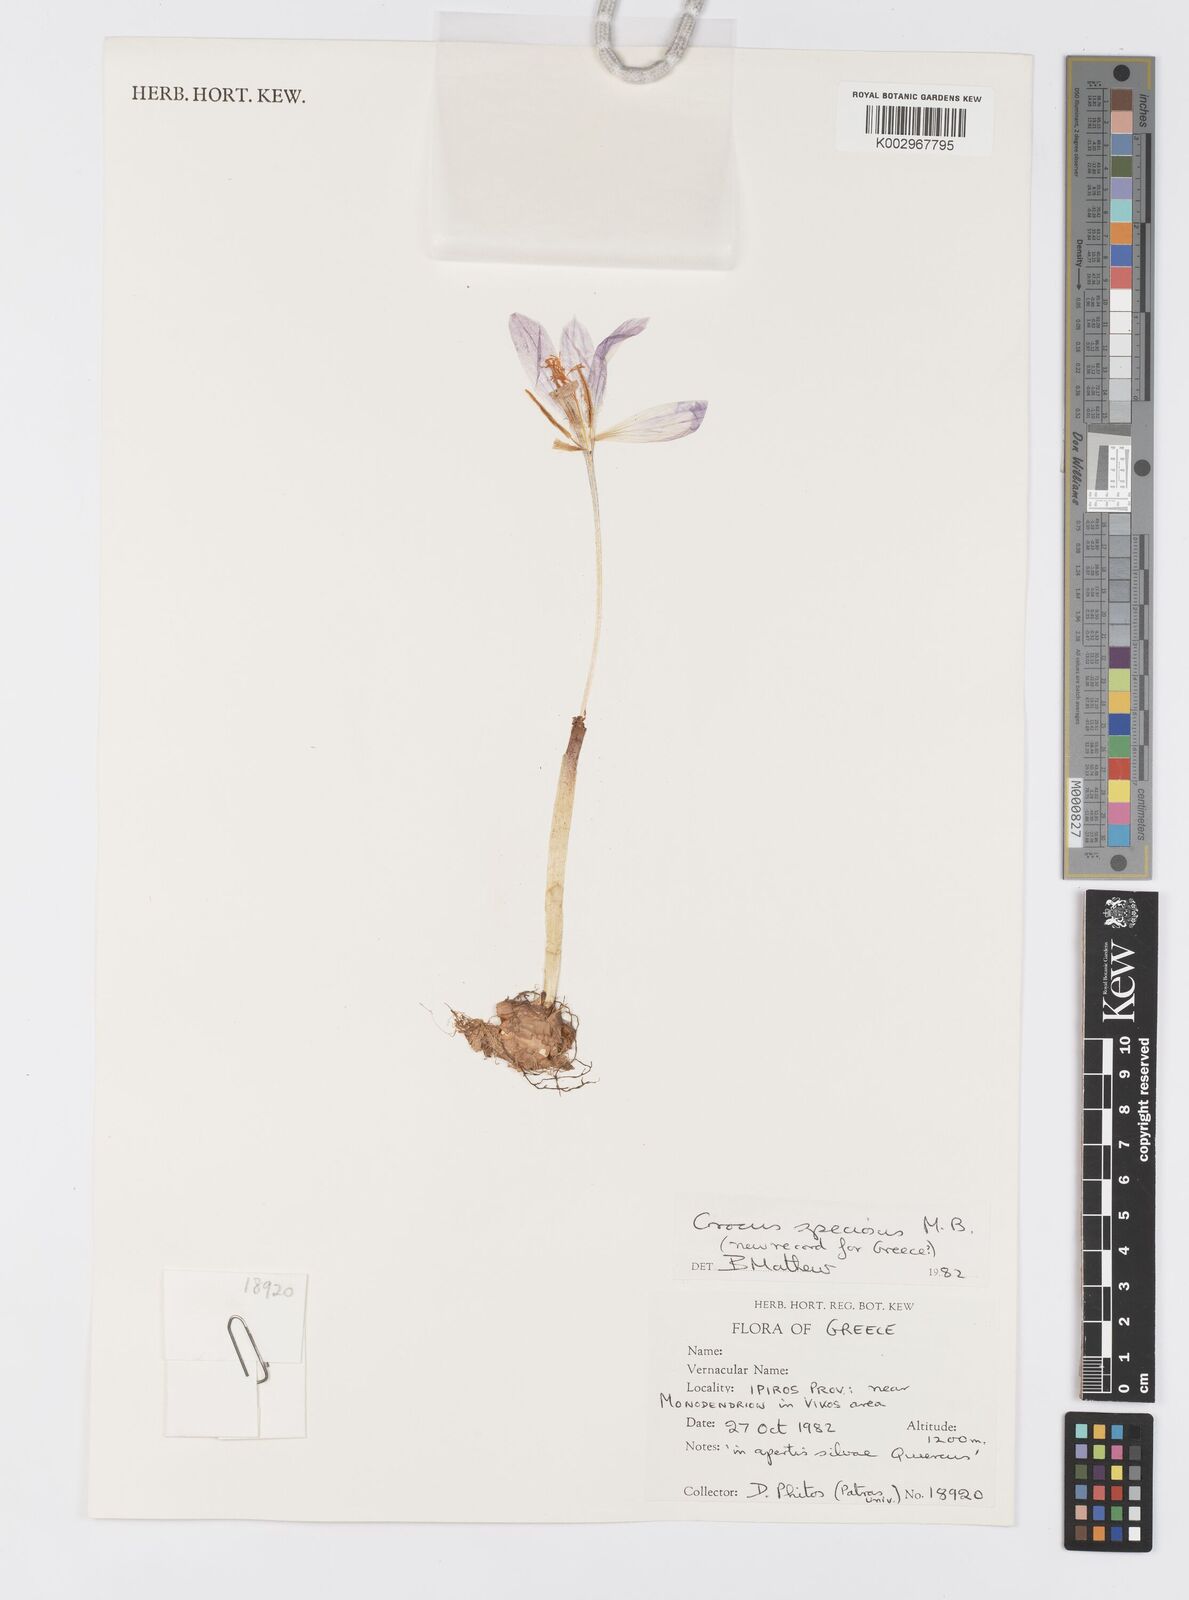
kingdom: Plantae
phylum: Tracheophyta
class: Liliopsida
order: Asparagales
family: Iridaceae
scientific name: Iridaceae
